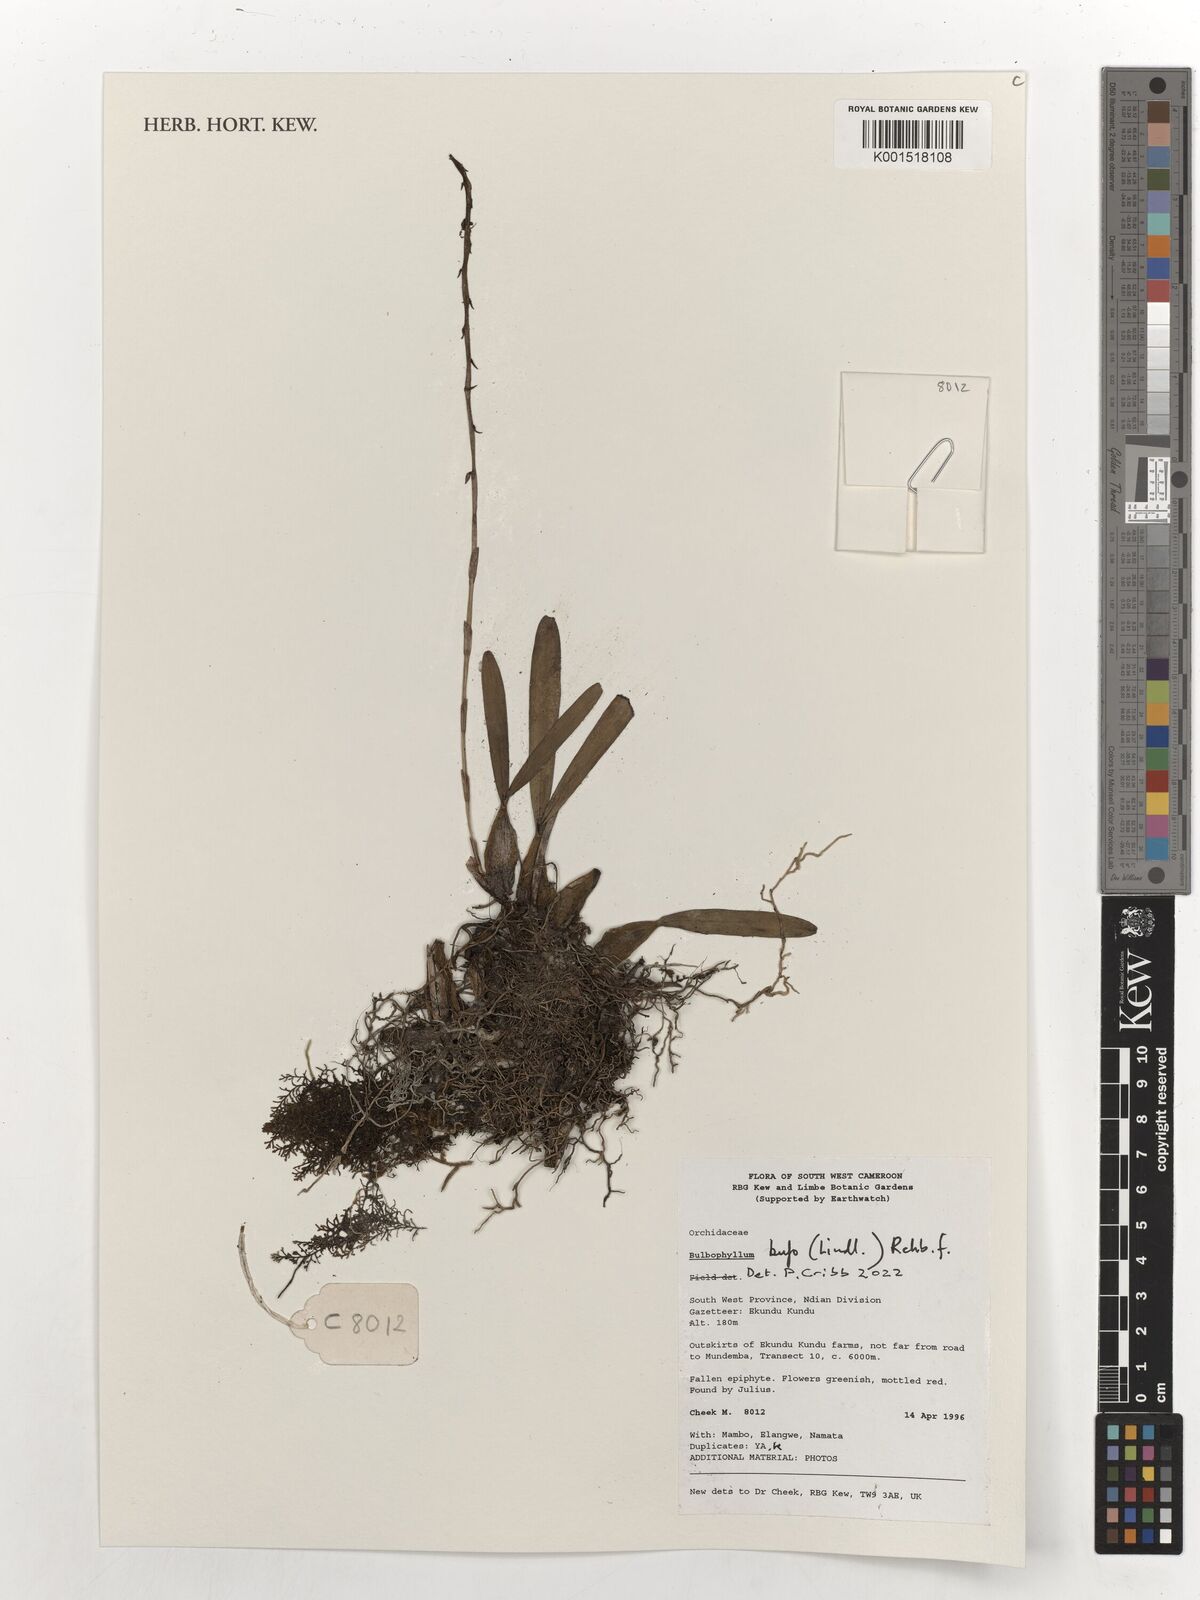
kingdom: Plantae
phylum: Tracheophyta
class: Liliopsida
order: Asparagales
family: Orchidaceae
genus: Bulbophyllum
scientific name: Bulbophyllum falcatum
